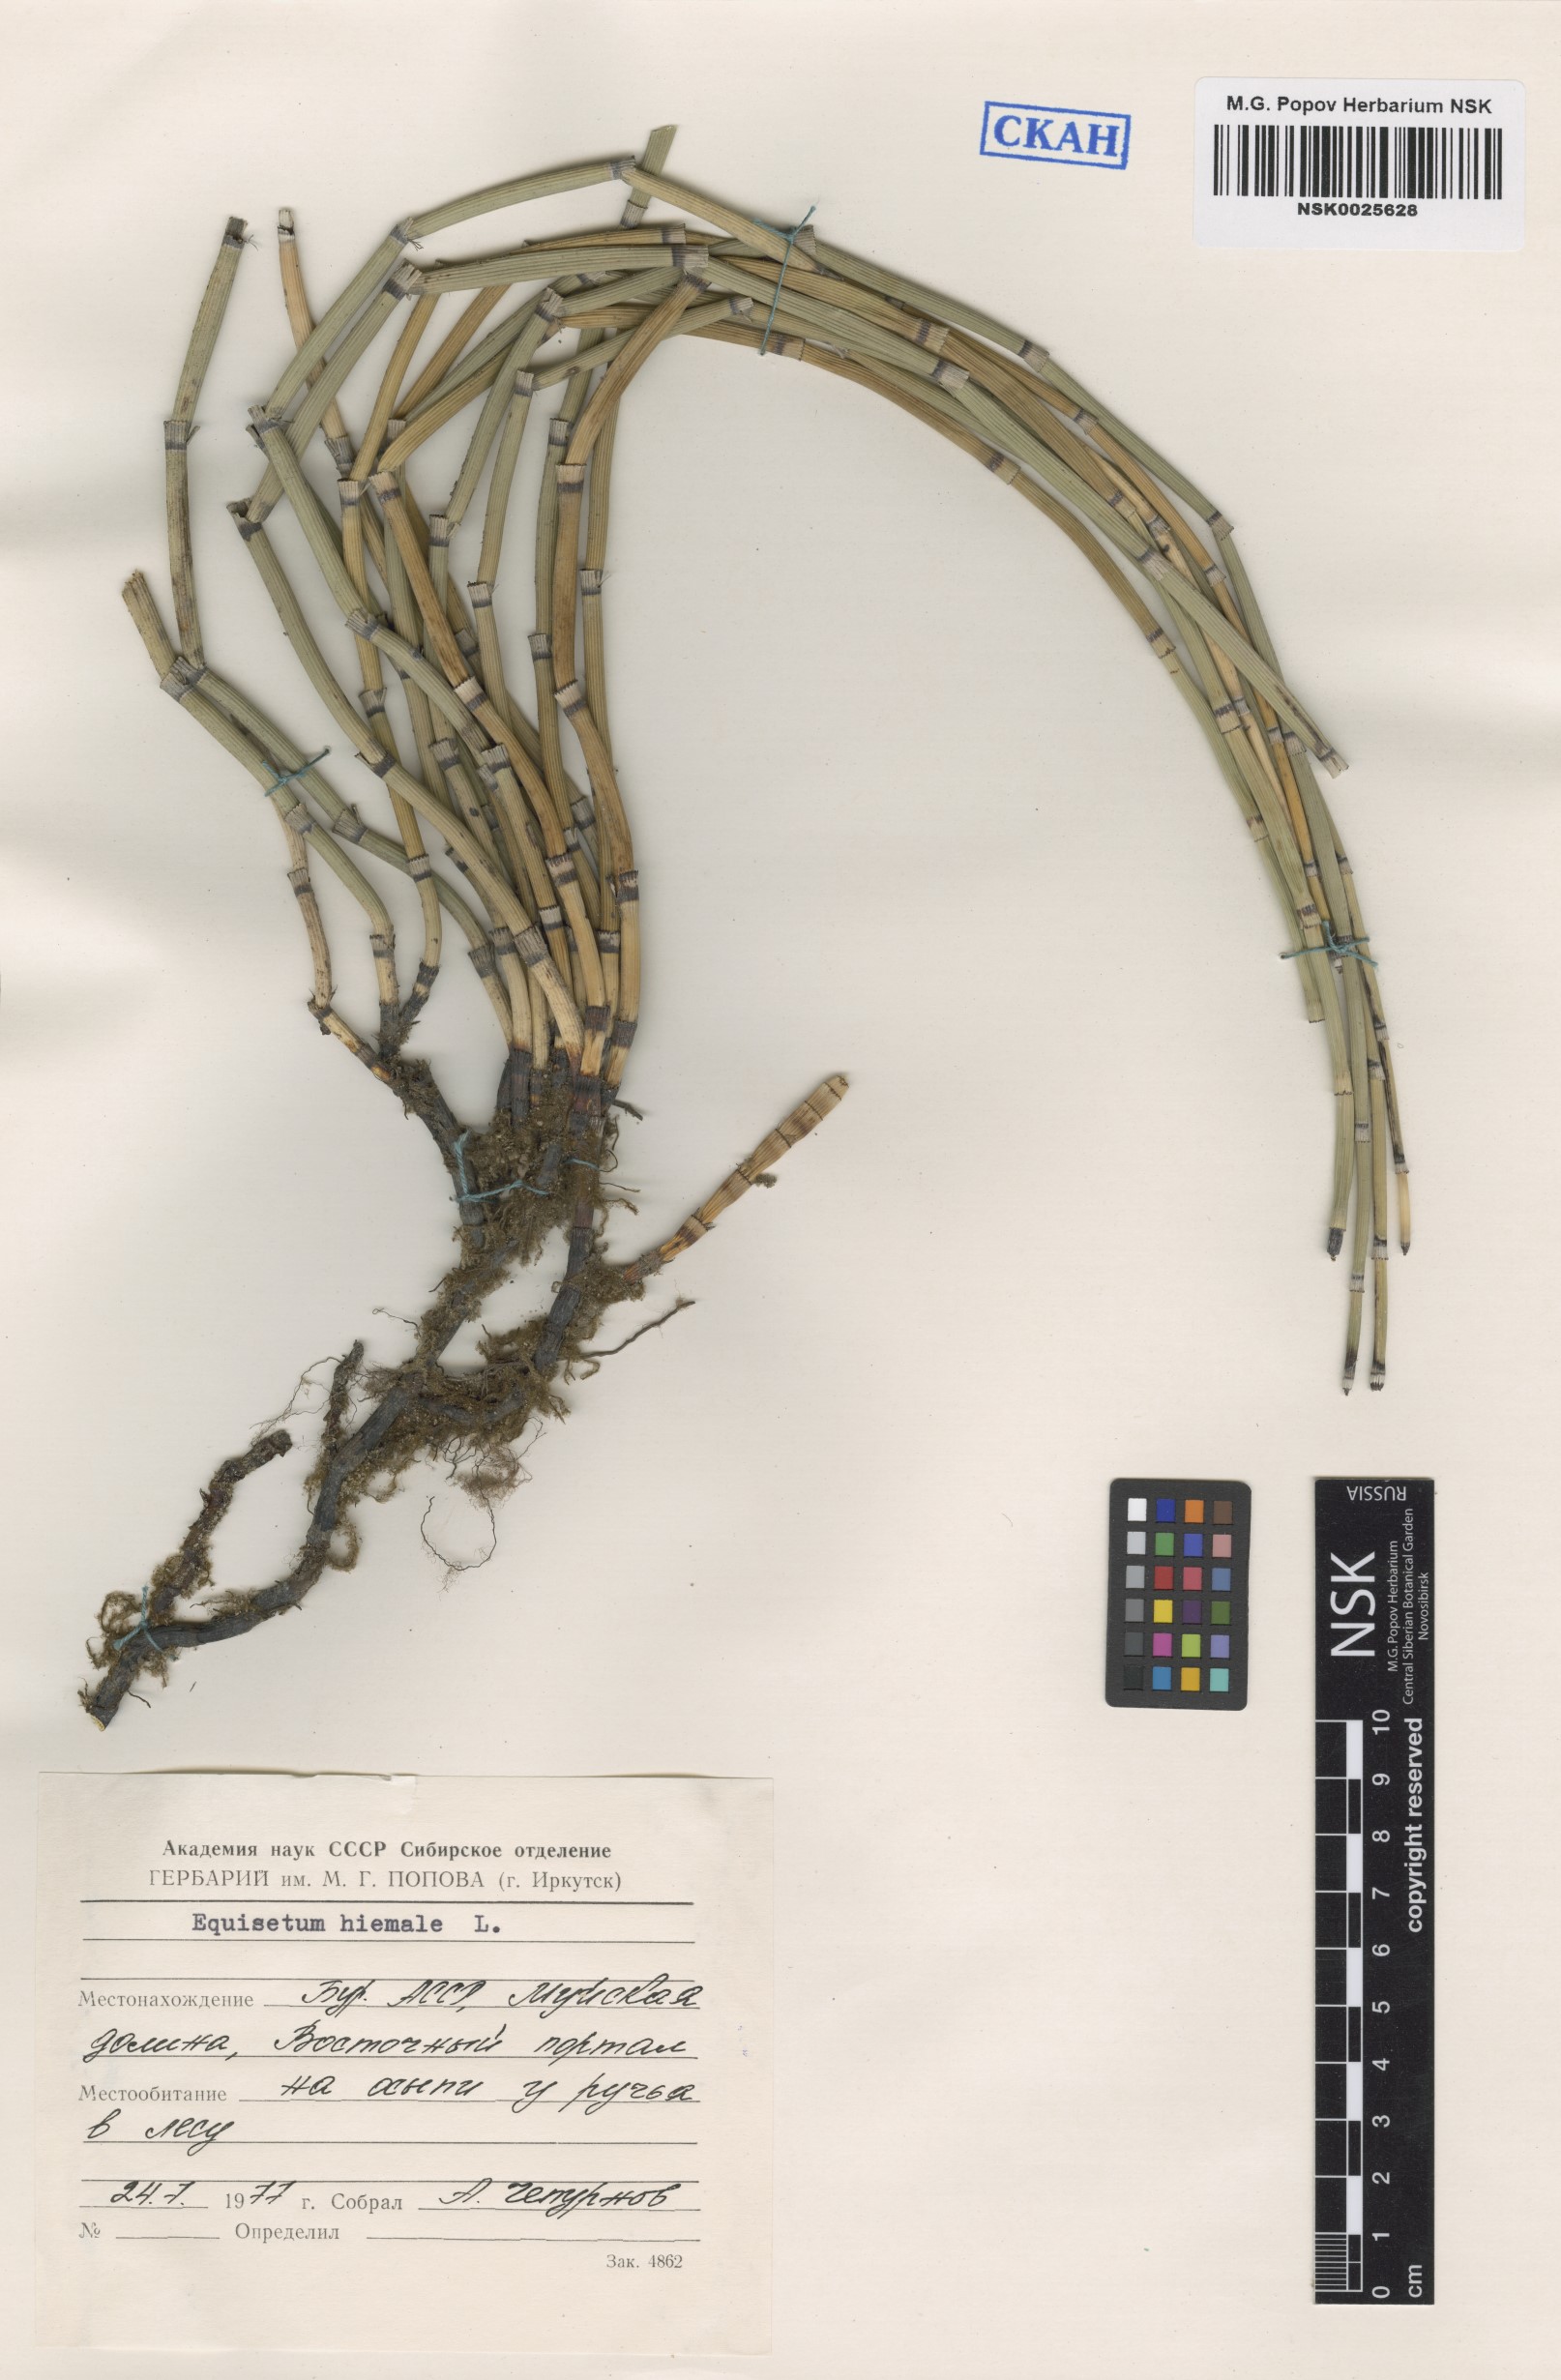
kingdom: Plantae
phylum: Tracheophyta
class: Polypodiopsida
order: Equisetales
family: Equisetaceae
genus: Equisetum
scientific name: Equisetum hyemale
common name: Rough horsetail
